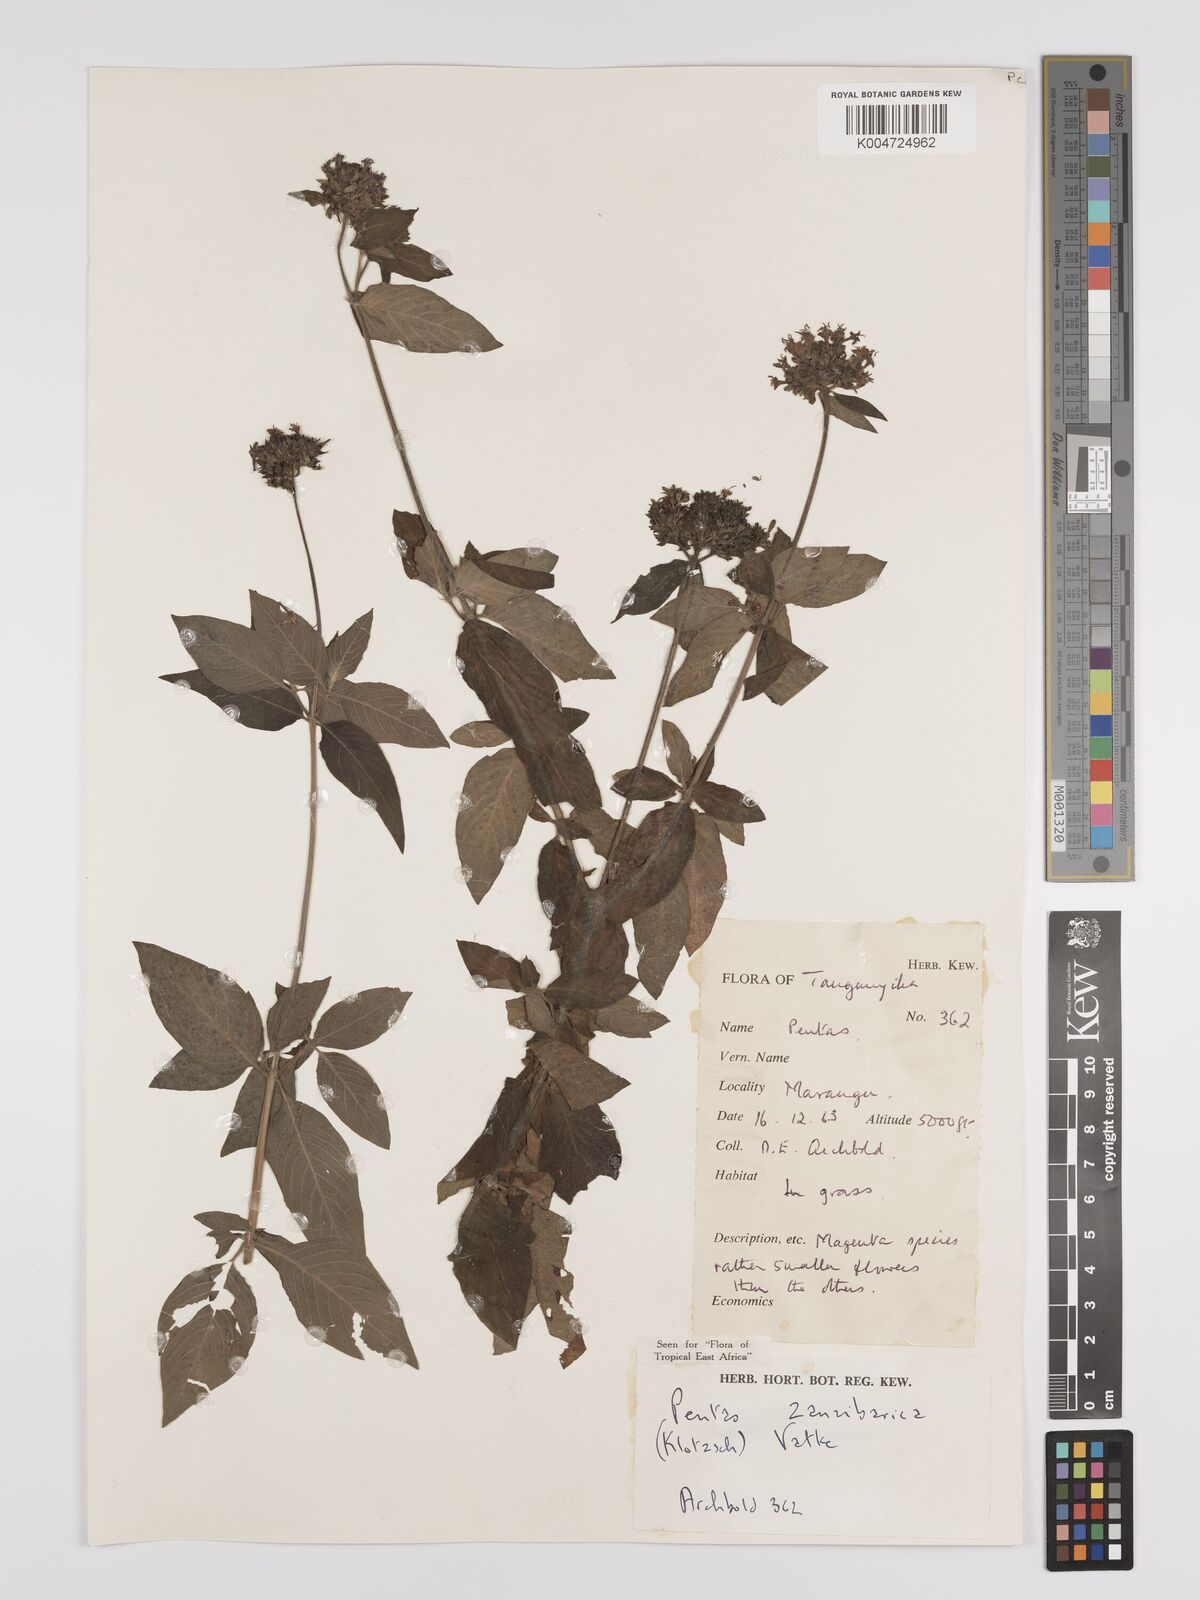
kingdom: Plantae
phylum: Tracheophyta
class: Magnoliopsida
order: Gentianales
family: Rubiaceae
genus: Pentas
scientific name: Pentas zanzibarica
